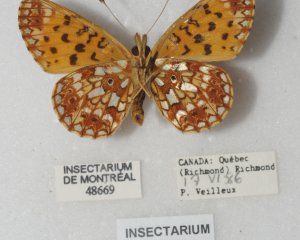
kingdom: Animalia
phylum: Arthropoda
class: Insecta
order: Lepidoptera
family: Nymphalidae
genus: Boloria
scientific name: Boloria selene
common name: Silver-bordered Fritillary
